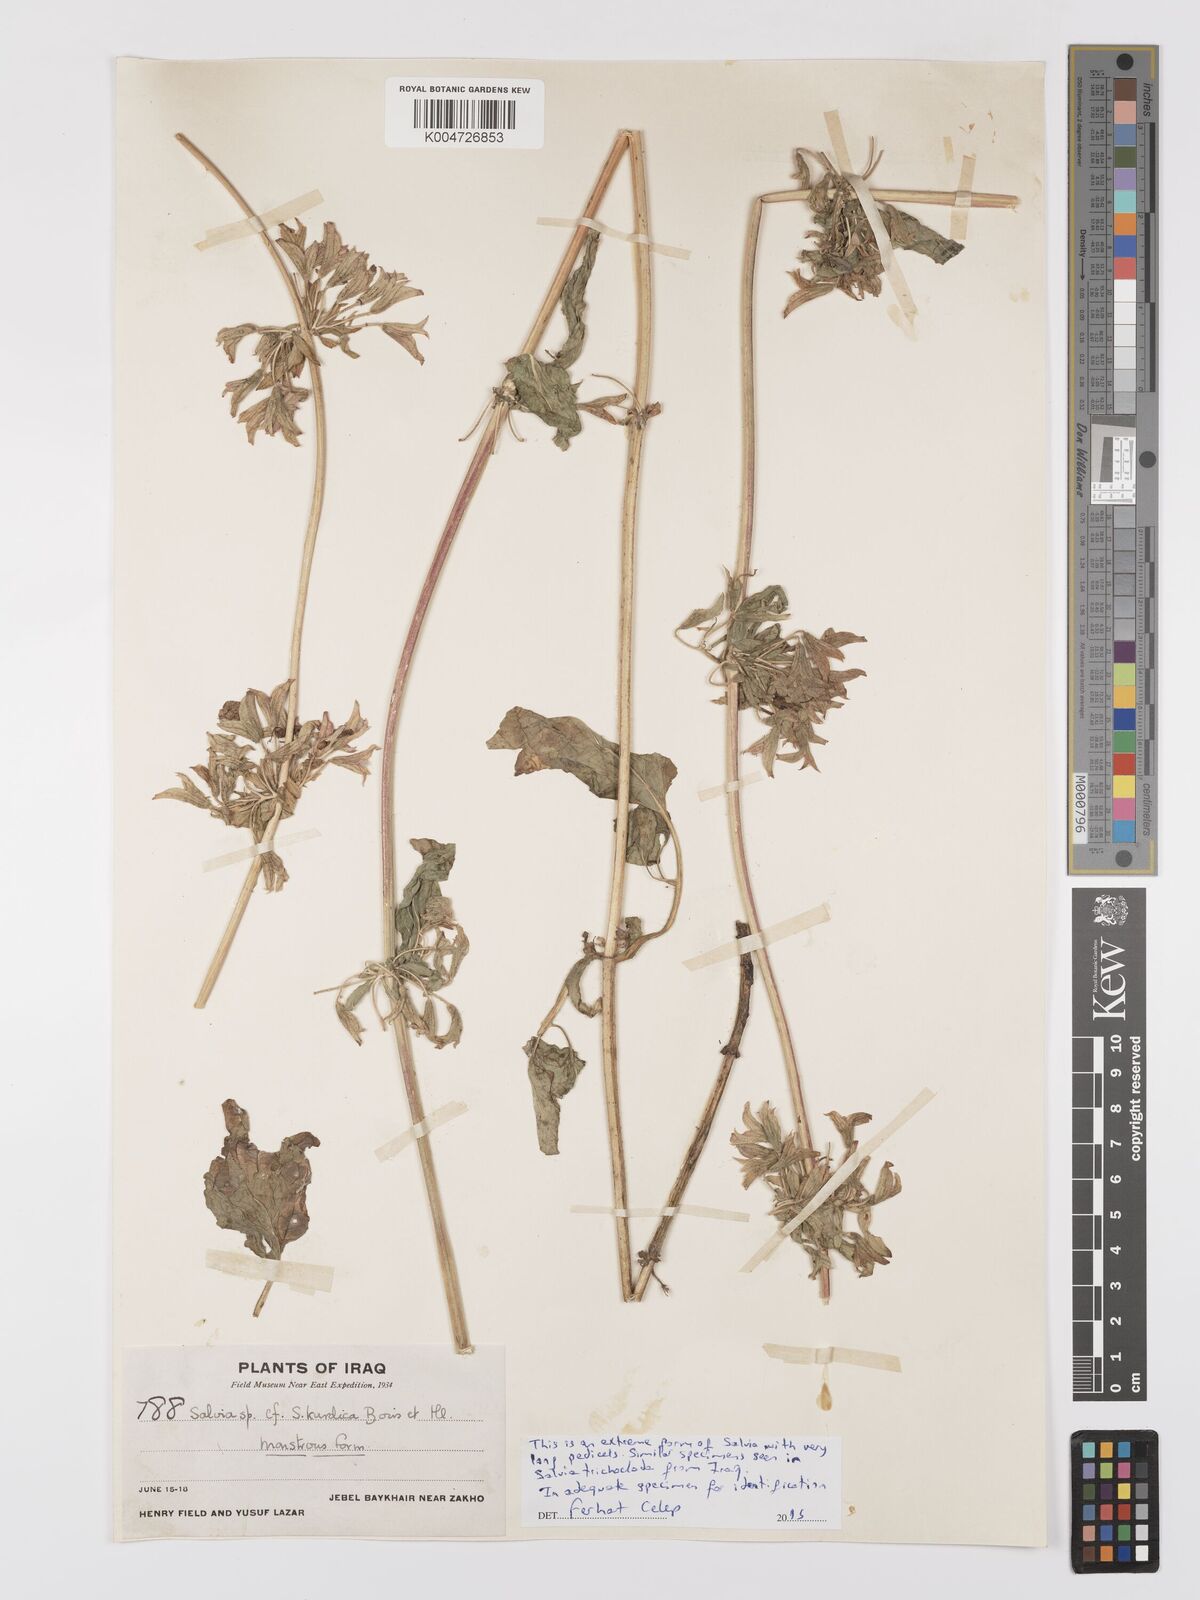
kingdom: Plantae
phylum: Tracheophyta
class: Magnoliopsida
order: Lamiales
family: Lamiaceae
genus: Salvia
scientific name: Salvia
